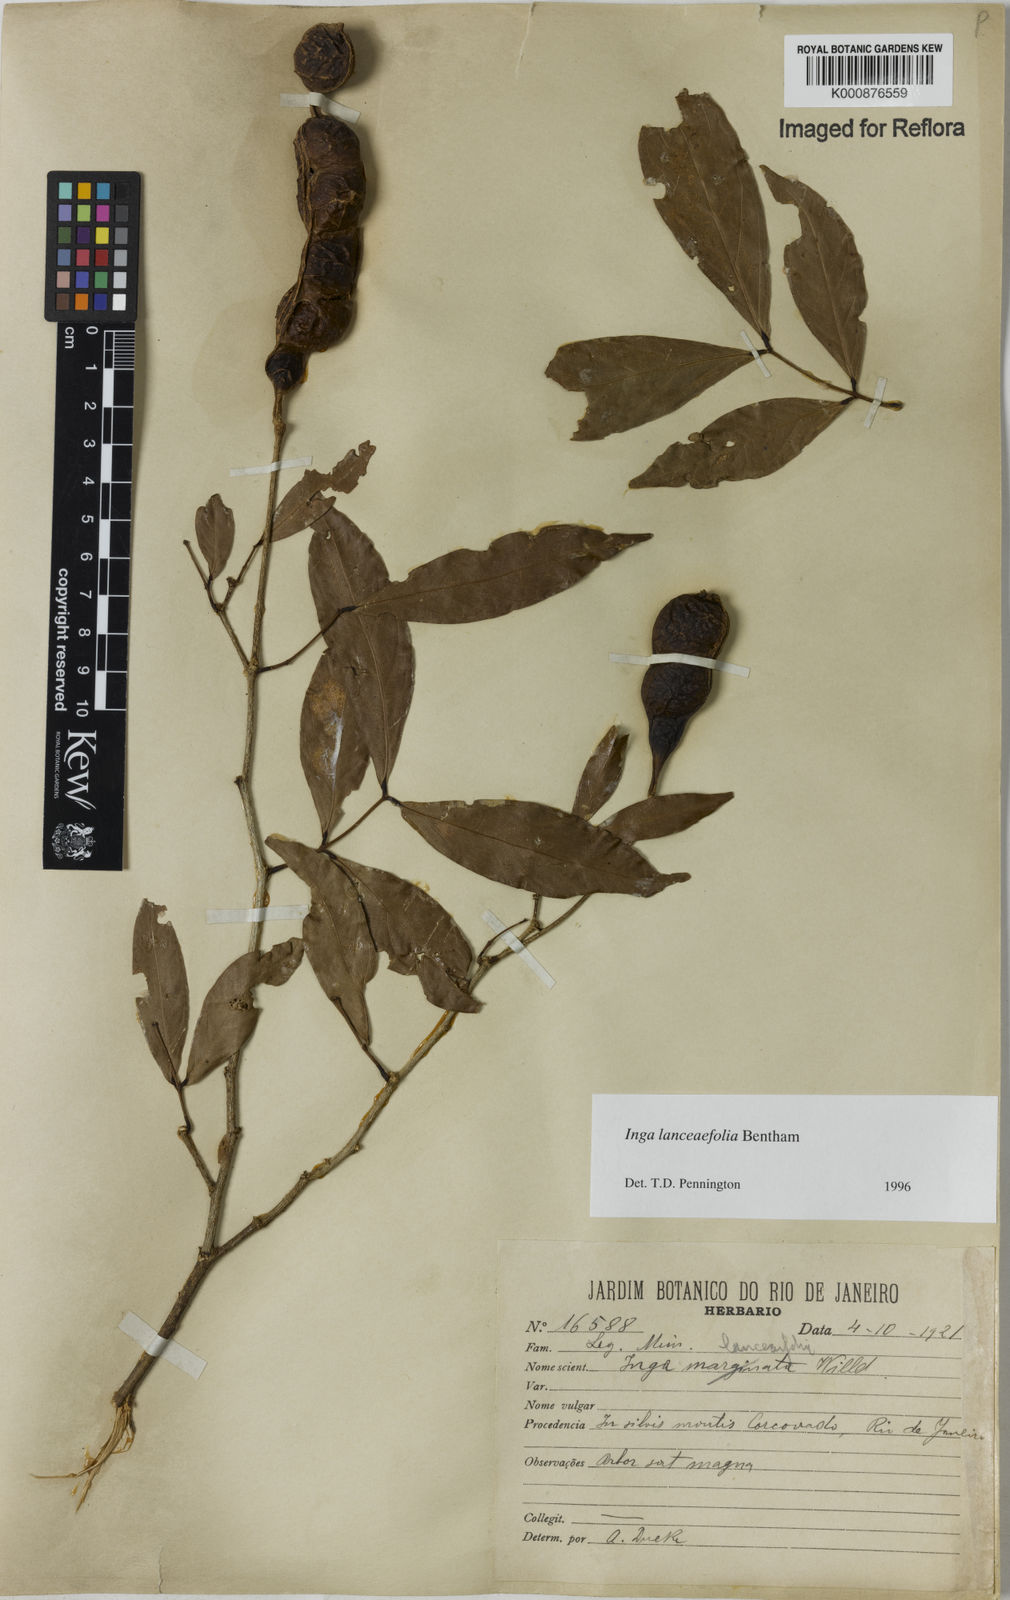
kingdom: Plantae
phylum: Tracheophyta
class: Magnoliopsida
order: Fabales
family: Fabaceae
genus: Inga
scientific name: Inga lanceifolia
